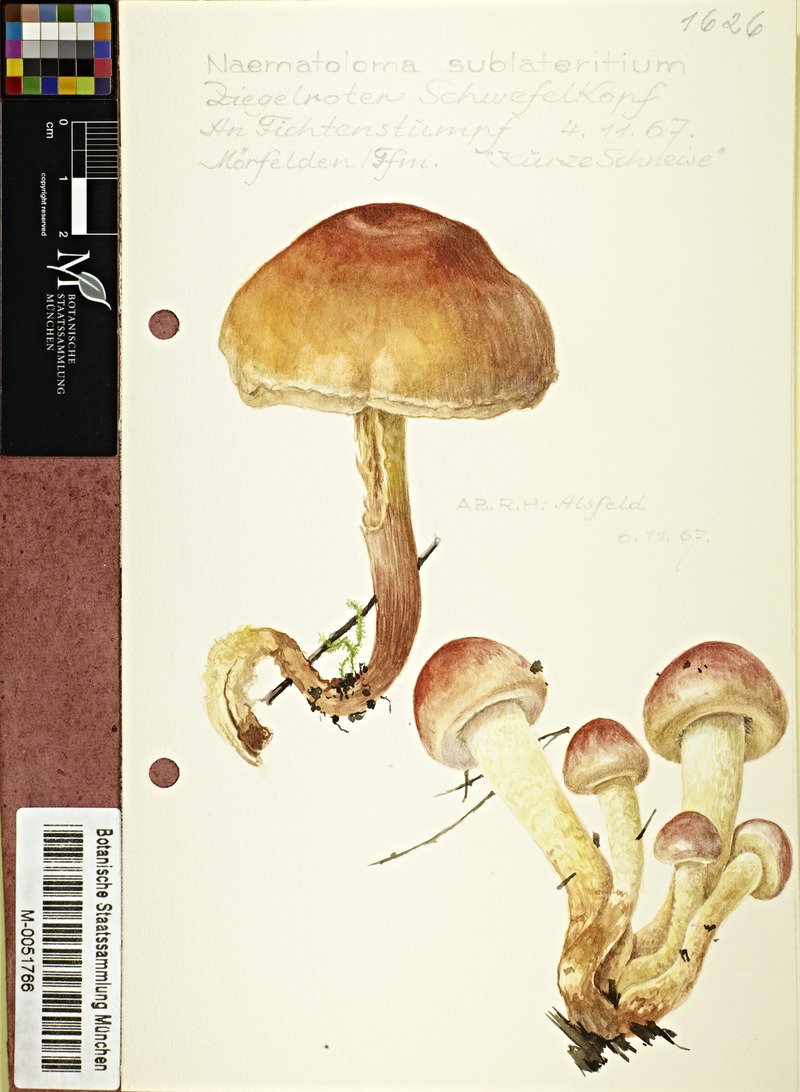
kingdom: Fungi
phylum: Basidiomycota
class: Agaricomycetes
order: Agaricales
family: Strophariaceae
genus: Hypholoma
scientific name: Hypholoma lateritium
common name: Brick caps
